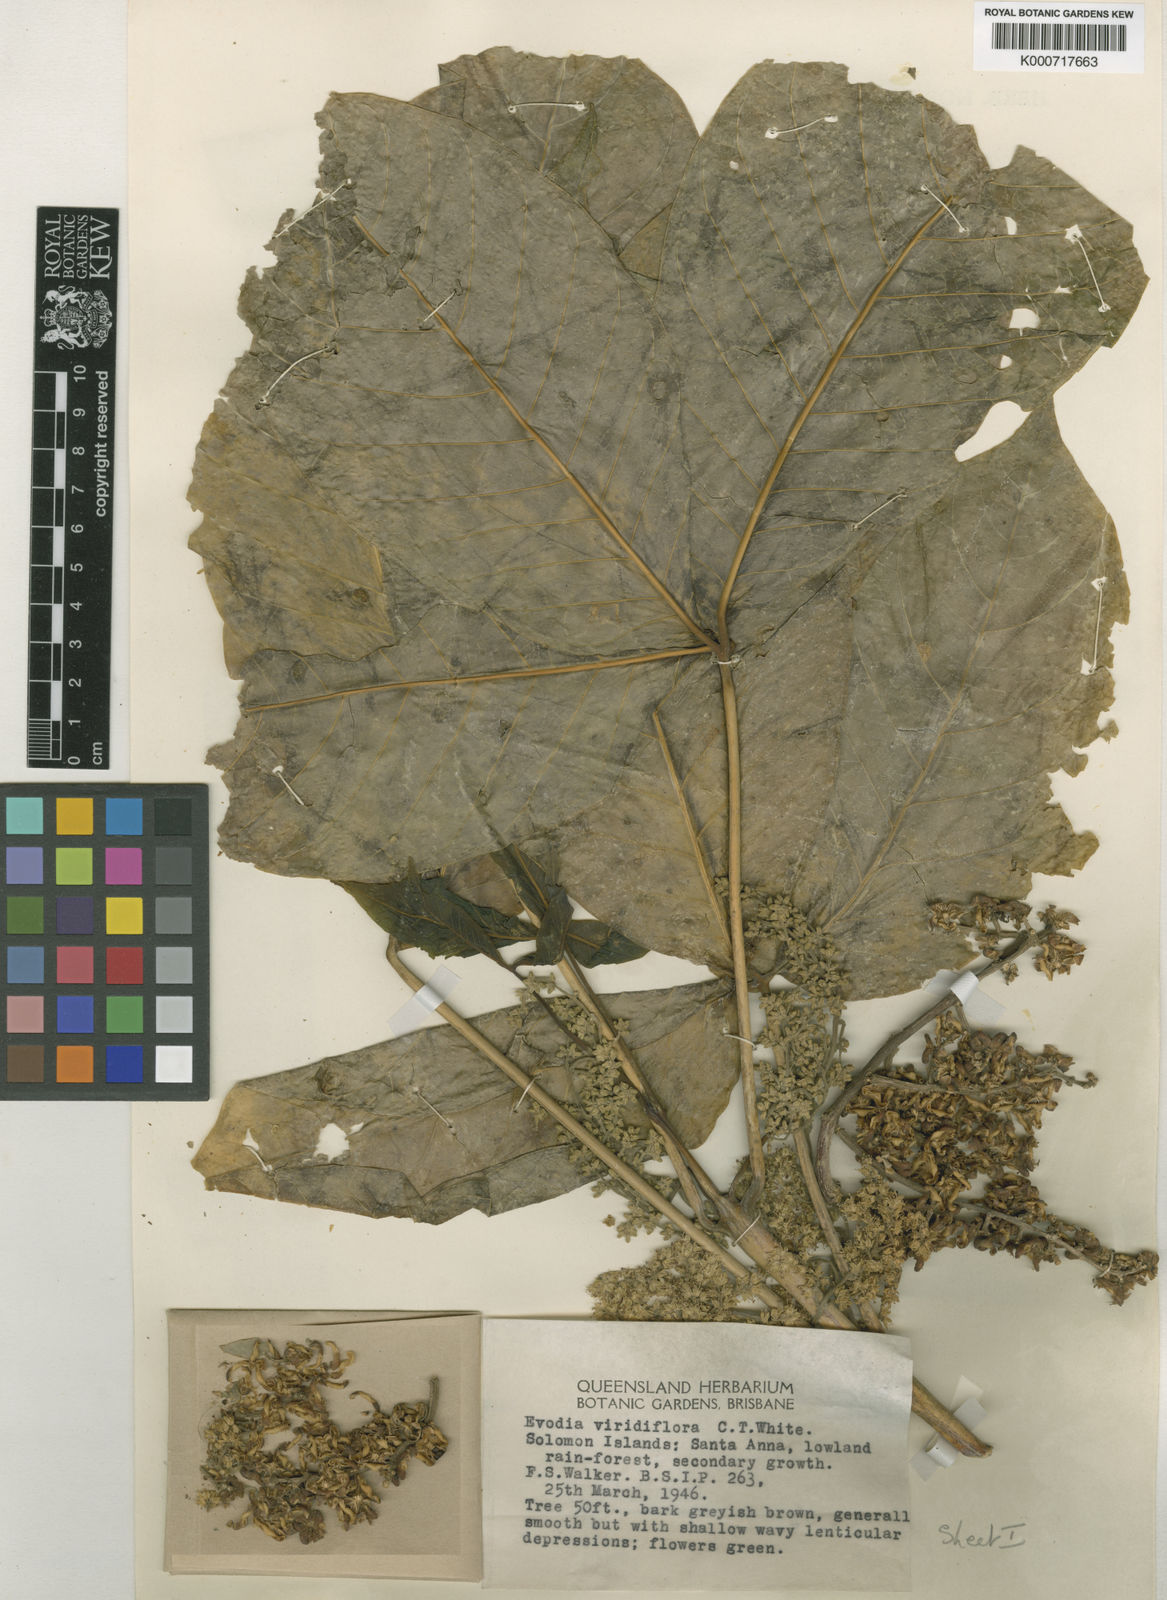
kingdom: Plantae
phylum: Tracheophyta
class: Magnoliopsida
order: Sapindales
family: Rutaceae
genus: Euodia
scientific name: Euodia
